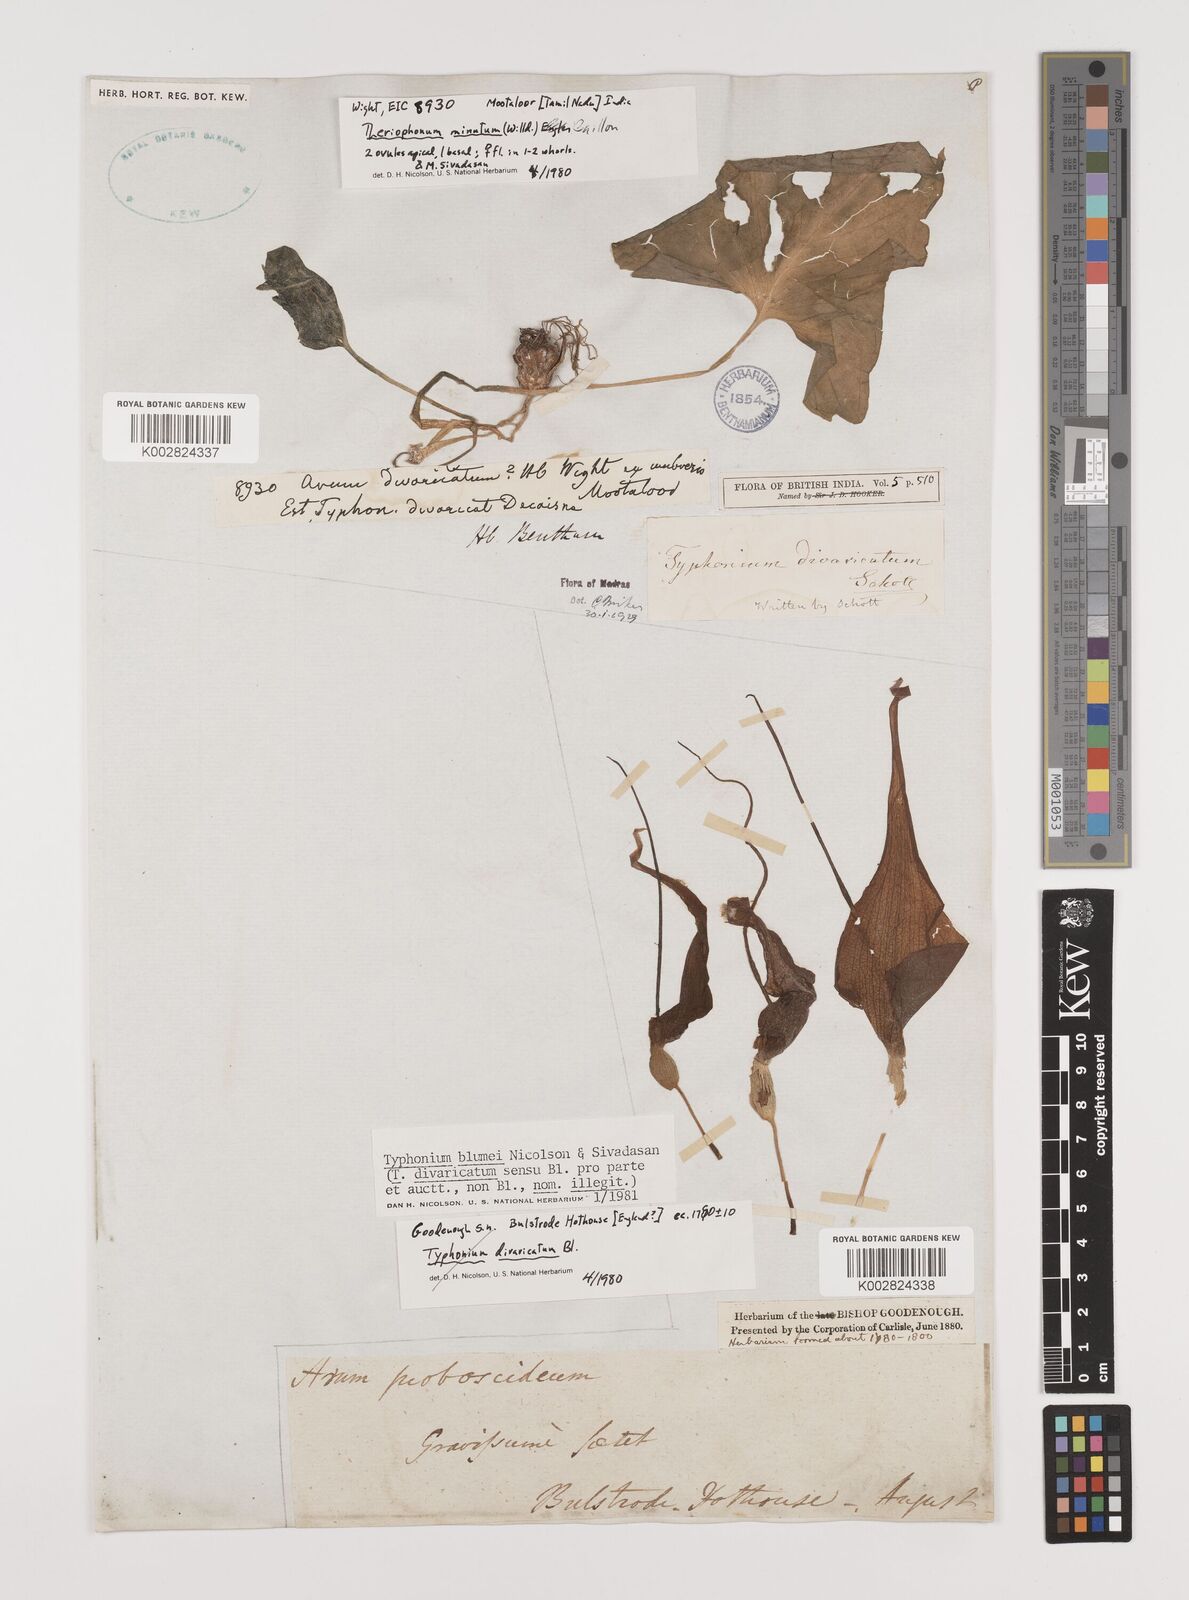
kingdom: Plantae
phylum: Tracheophyta
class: Liliopsida
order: Alismatales
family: Araceae
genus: Typhonium
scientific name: Typhonium blumei
